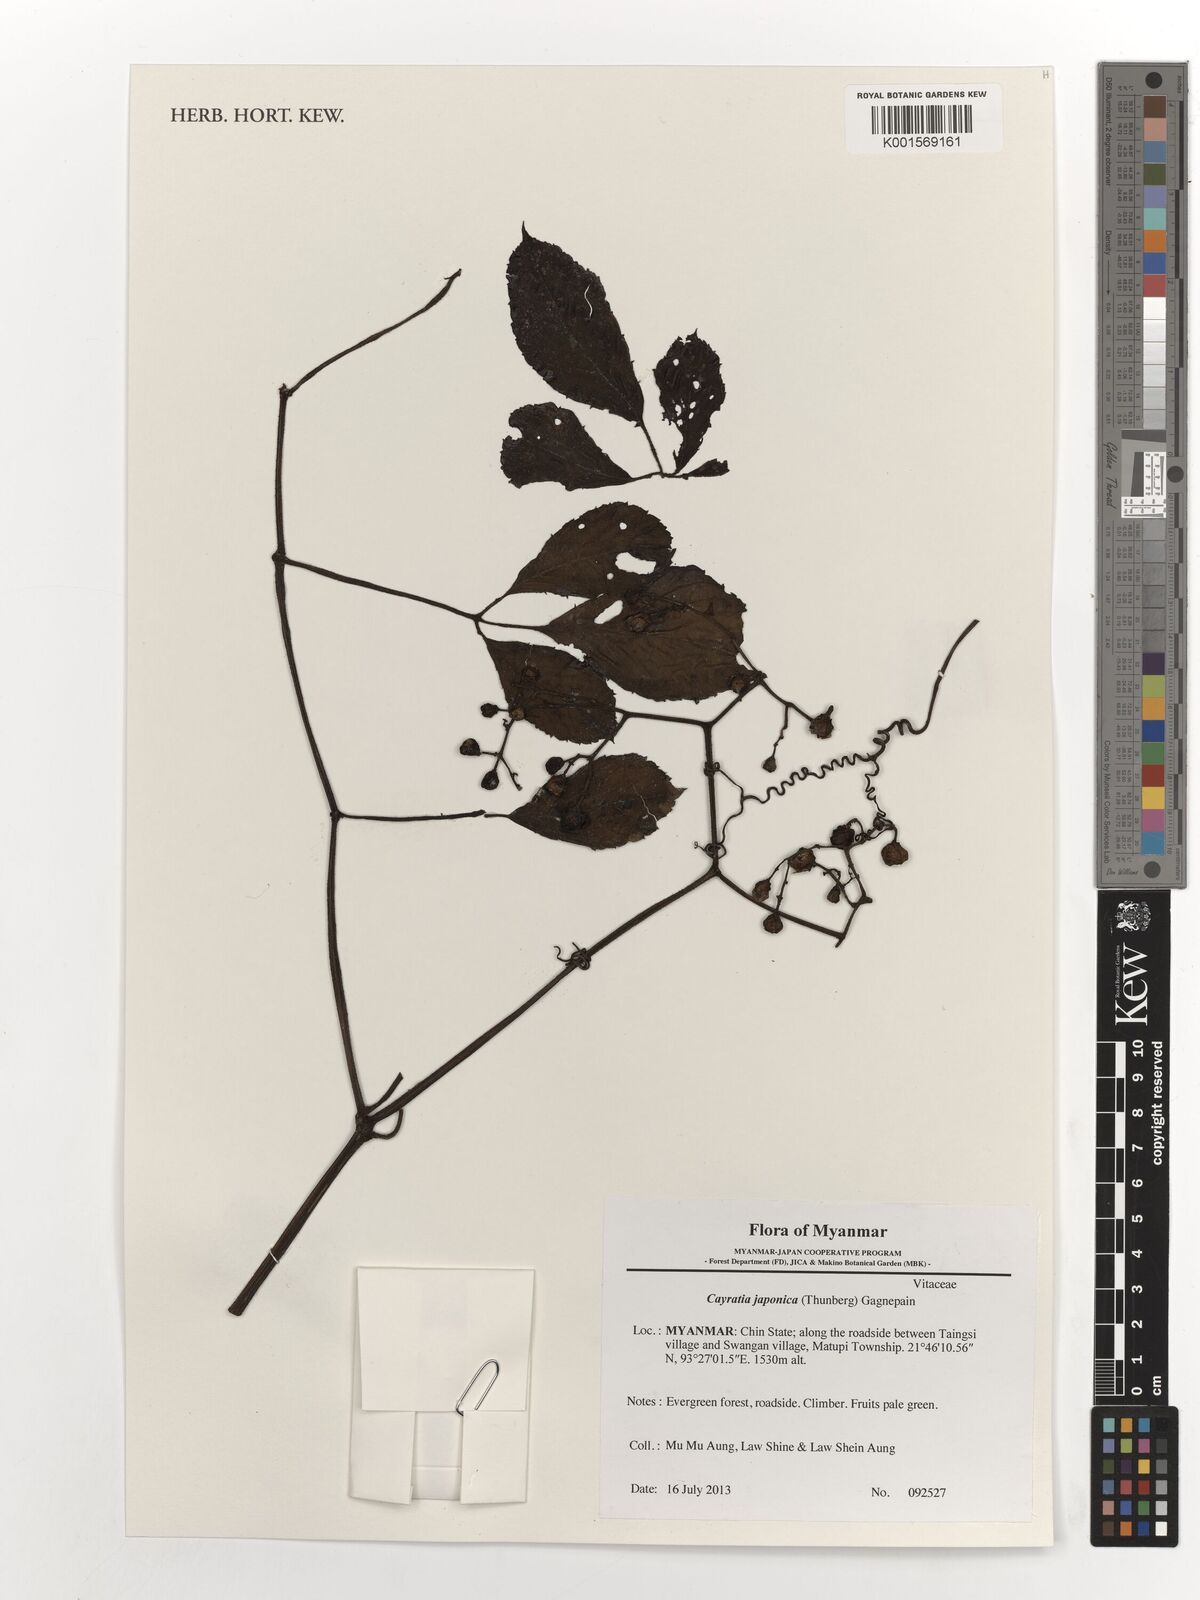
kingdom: Plantae
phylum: Tracheophyta
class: Magnoliopsida
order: Vitales
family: Vitaceae
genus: Causonis
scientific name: Causonis japonica
